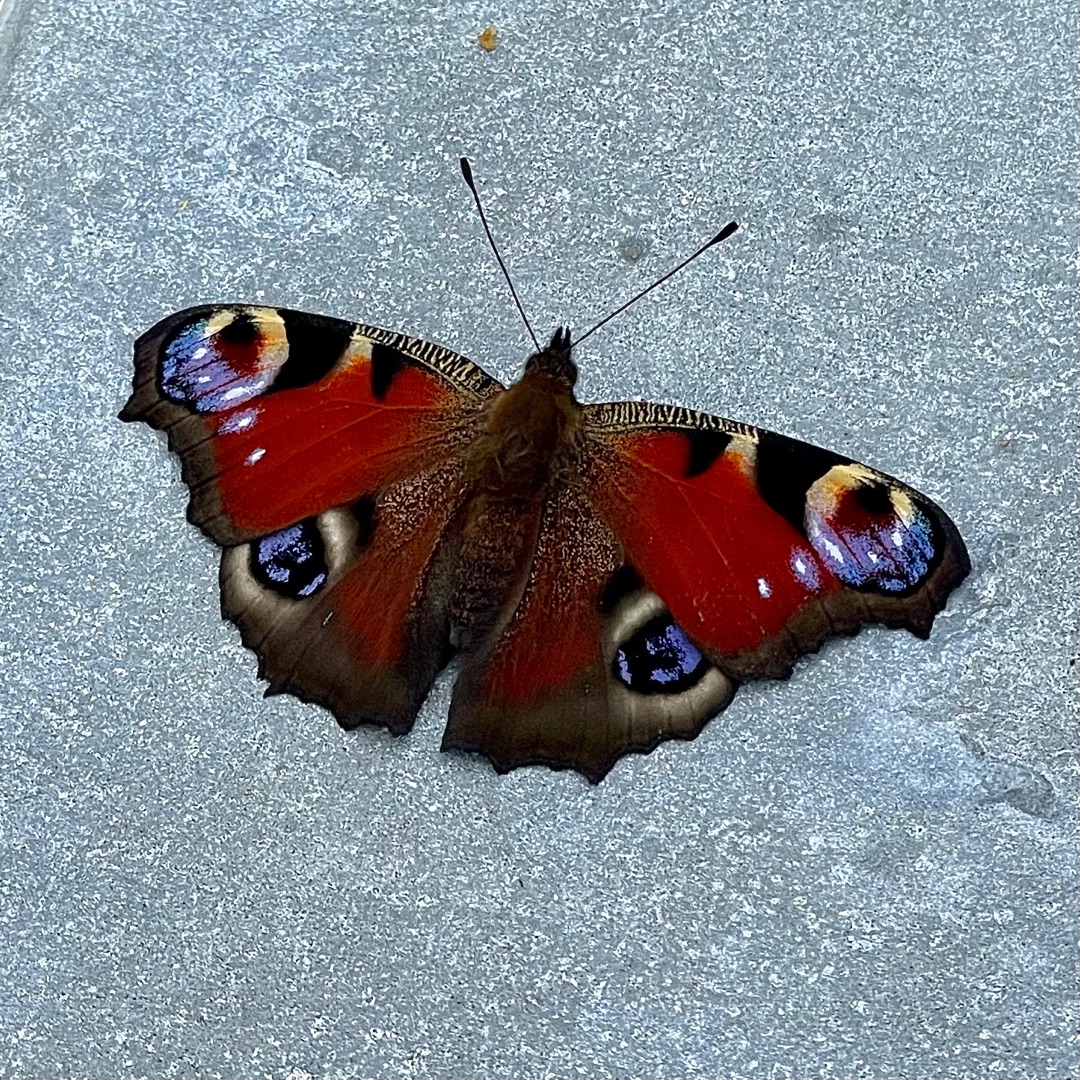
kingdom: Animalia
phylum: Arthropoda
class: Insecta
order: Lepidoptera
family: Nymphalidae
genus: Aglais
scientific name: Aglais io
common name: Dagpåfugleøje
